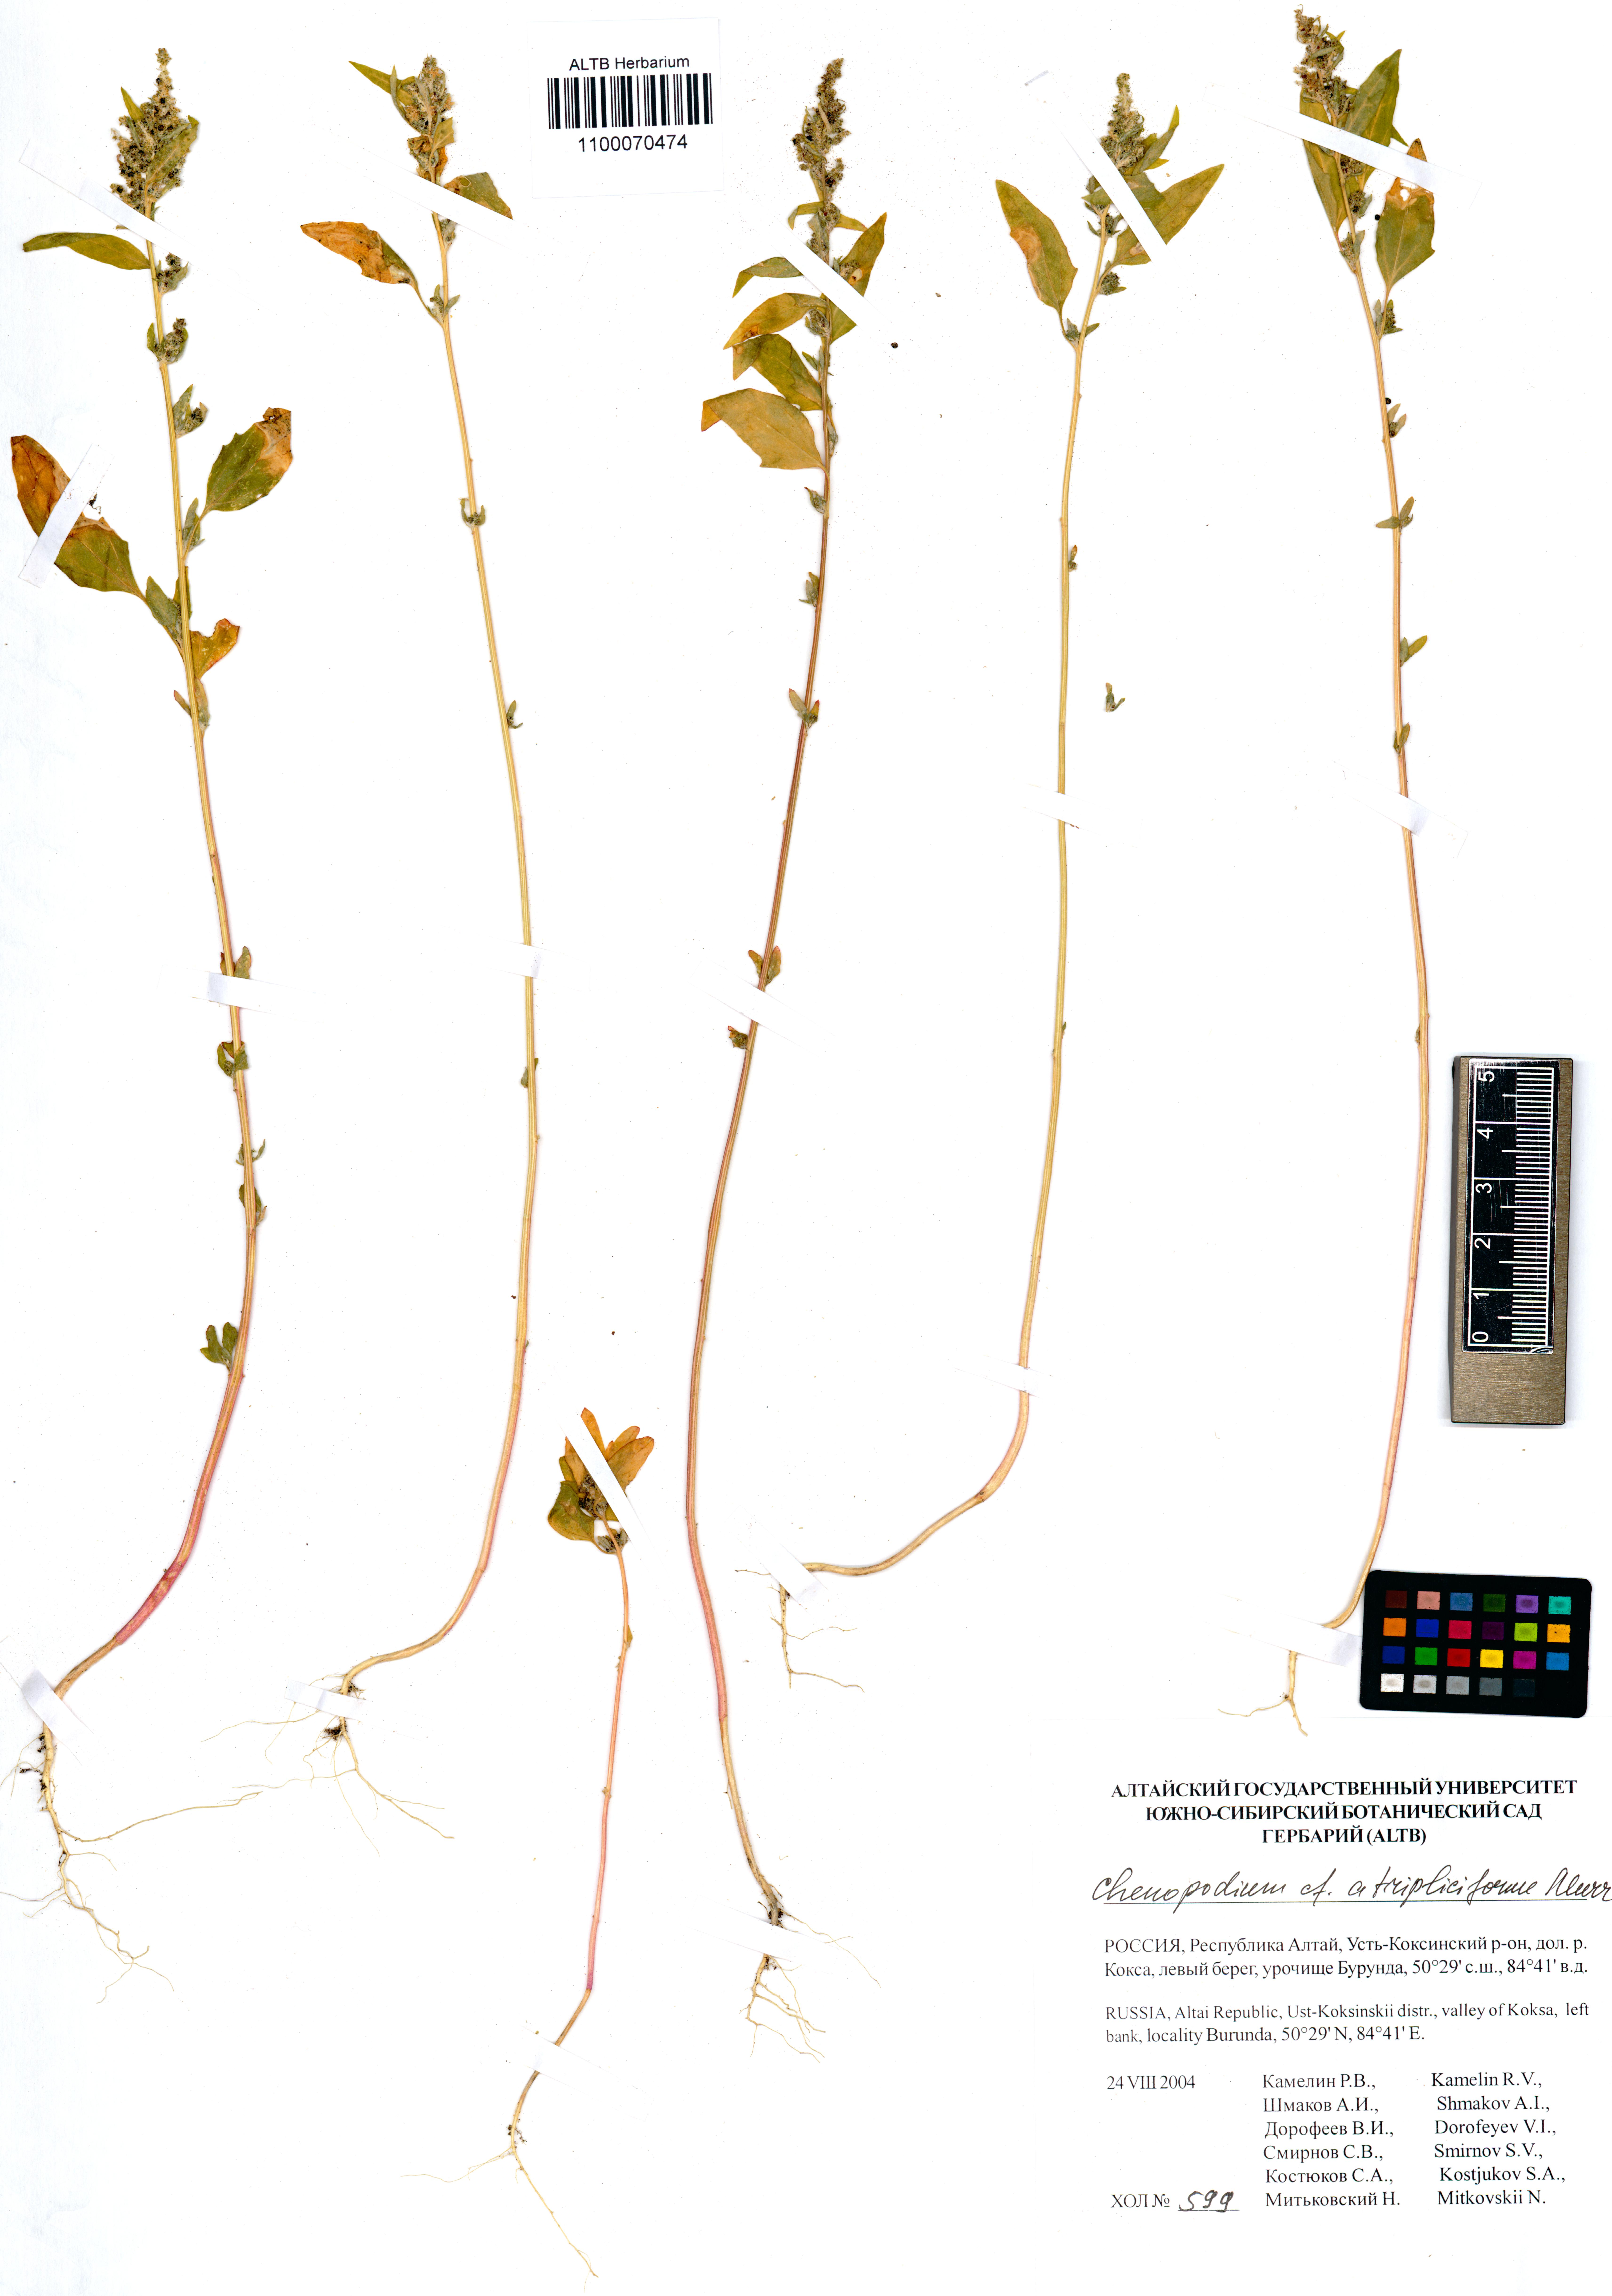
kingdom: Plantae
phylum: Tracheophyta
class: Magnoliopsida
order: Caryophyllales
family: Amaranthaceae
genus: Dysphania
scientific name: Dysphania atriplicifolia
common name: Plains tumbleweed
